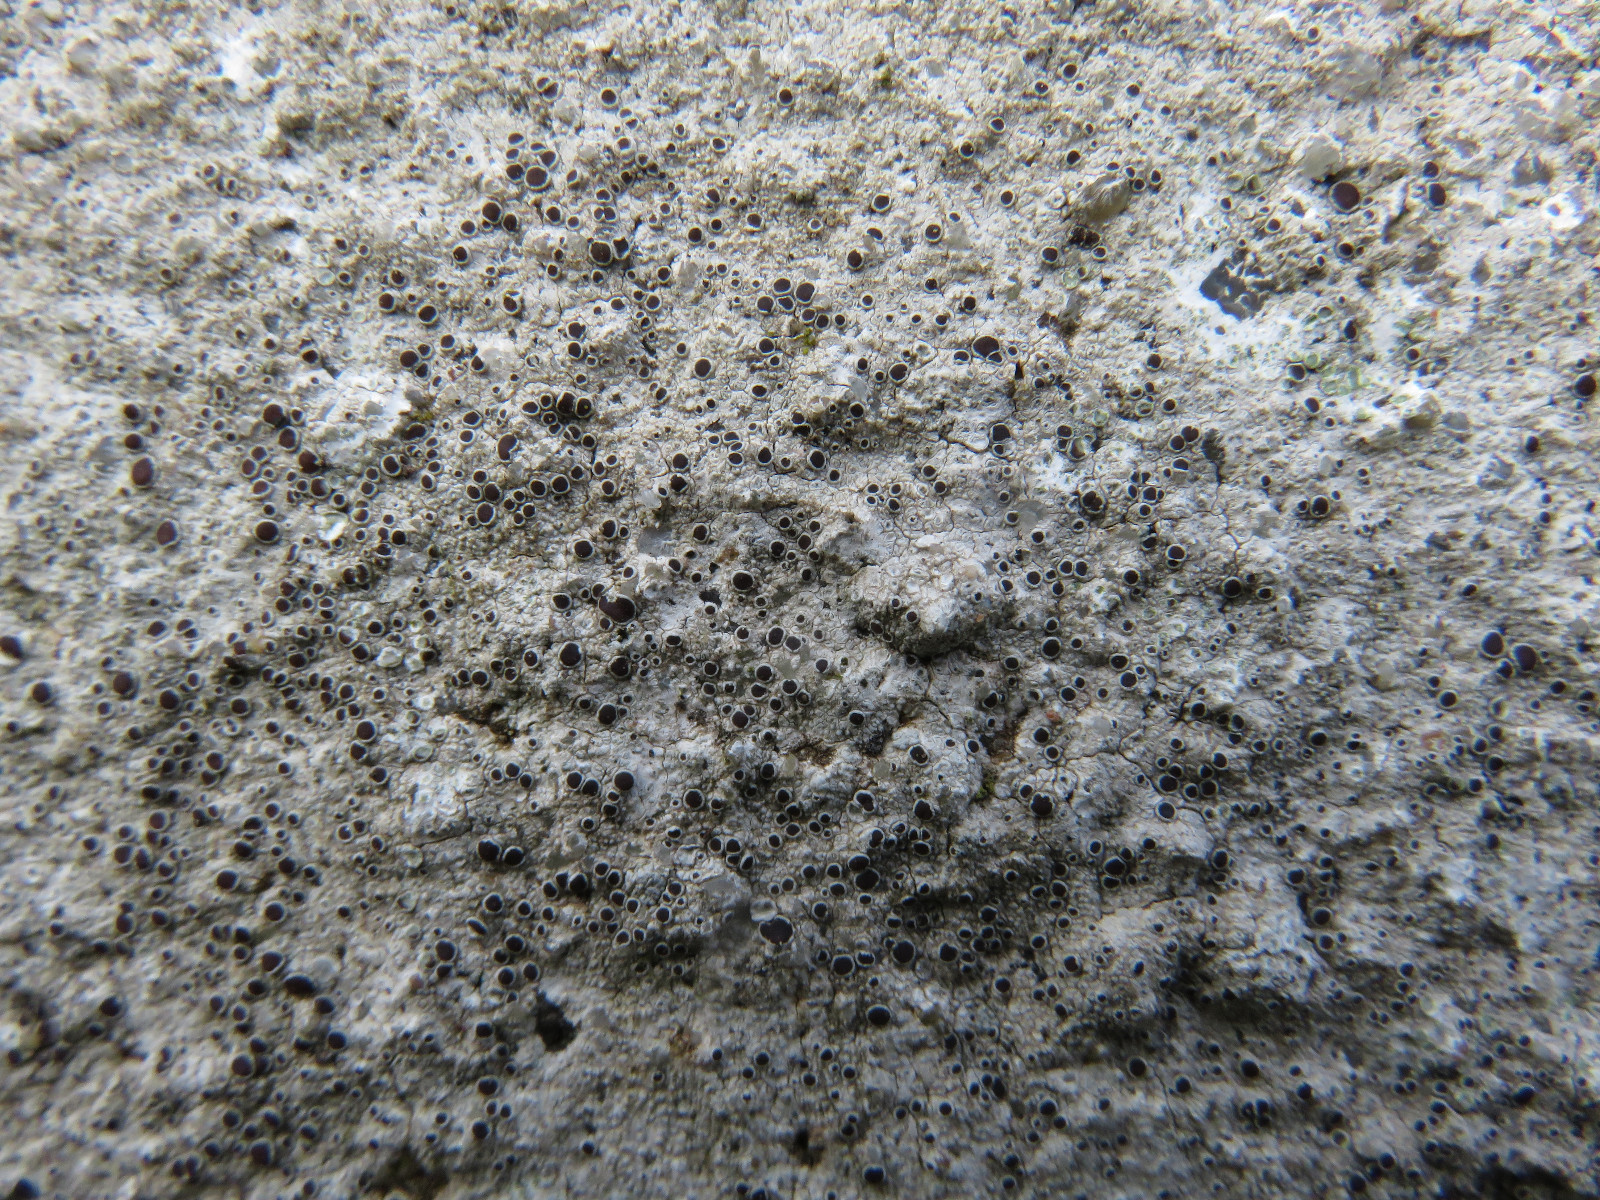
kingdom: Fungi
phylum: Ascomycota
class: Lecanoromycetes
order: Lecanorales
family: Lecanoraceae
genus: Lecanora
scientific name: Lecanora campestris
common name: mur-kantskivelav
